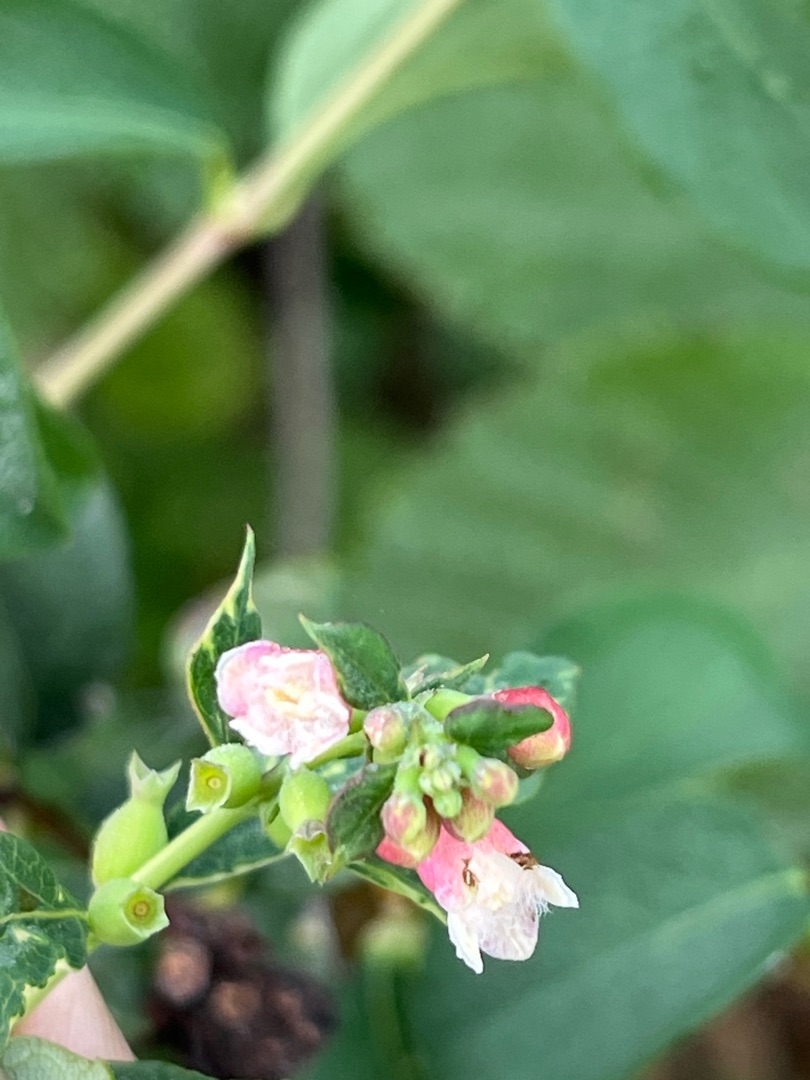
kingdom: Plantae
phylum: Tracheophyta
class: Magnoliopsida
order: Dipsacales
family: Caprifoliaceae
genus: Symphoricarpos
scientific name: Symphoricarpos albus
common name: Almindelig snebær
